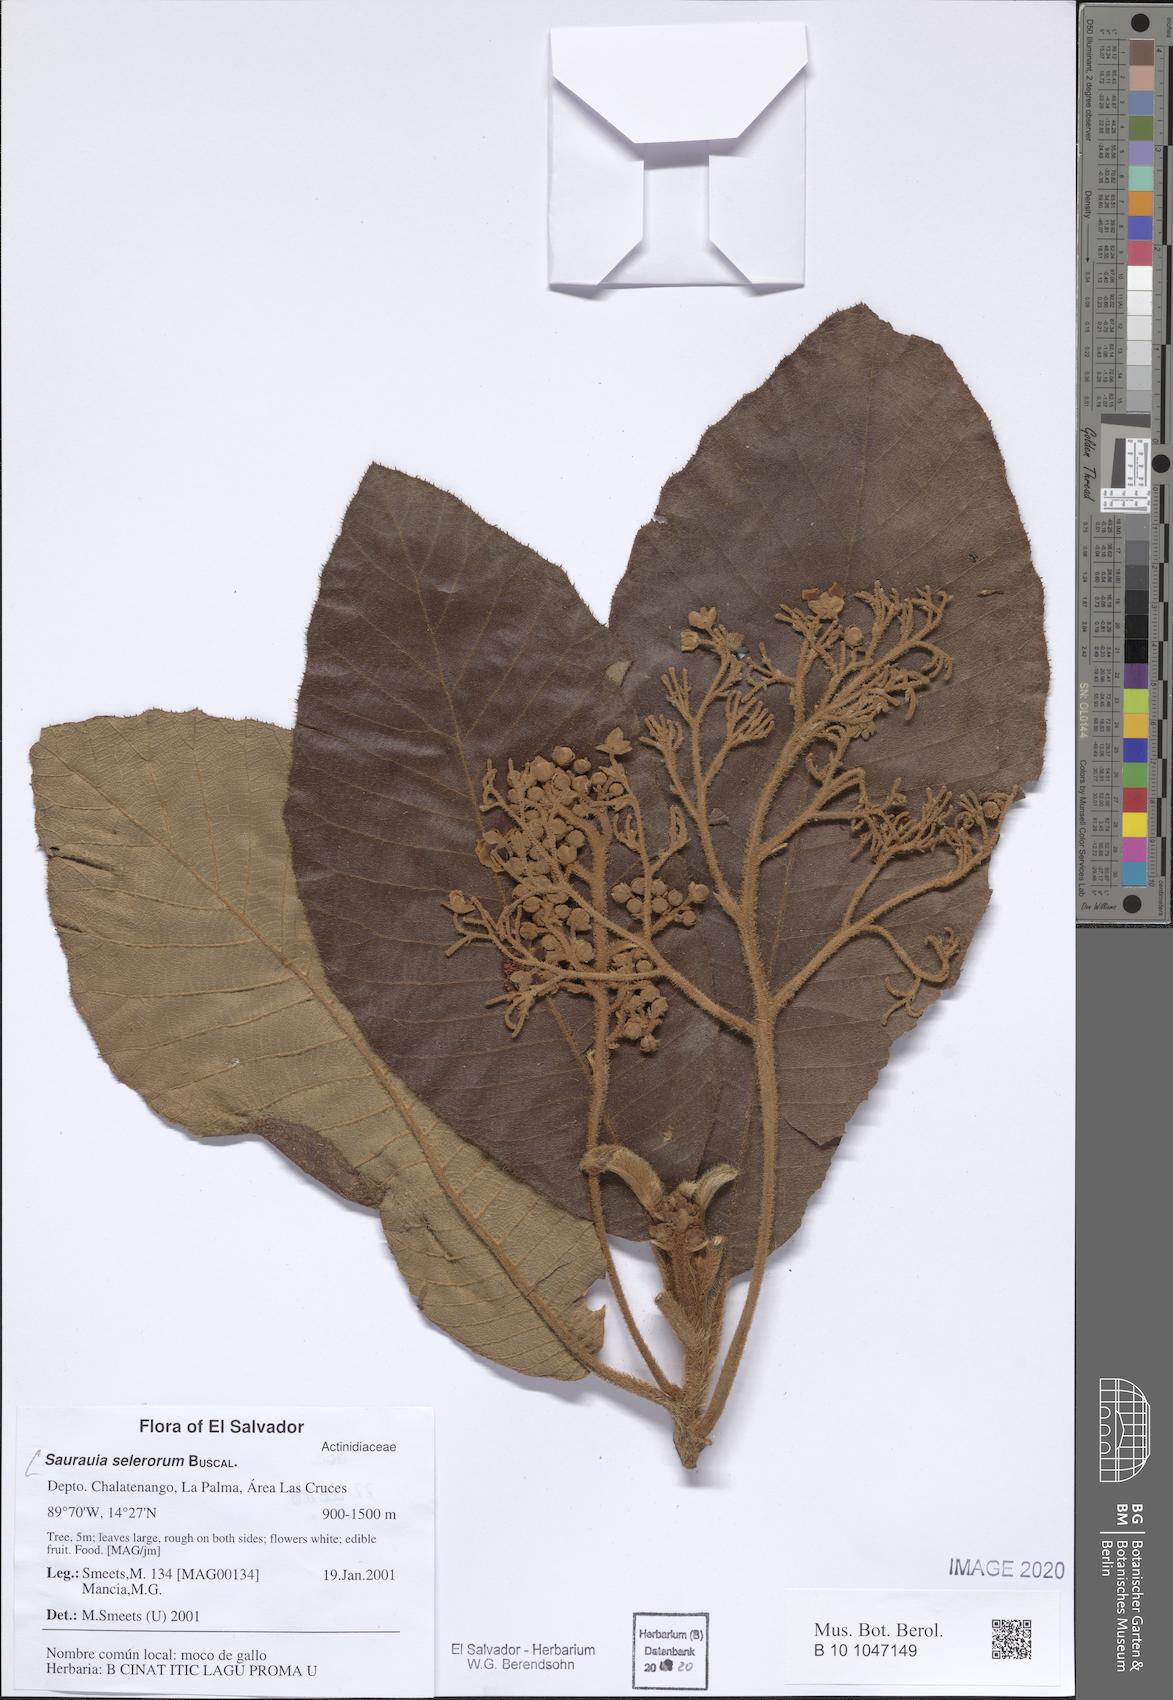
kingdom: Plantae
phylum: Tracheophyta
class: Magnoliopsida
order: Ericales
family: Actinidiaceae
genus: Saurauia
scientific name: Saurauia selerorum
